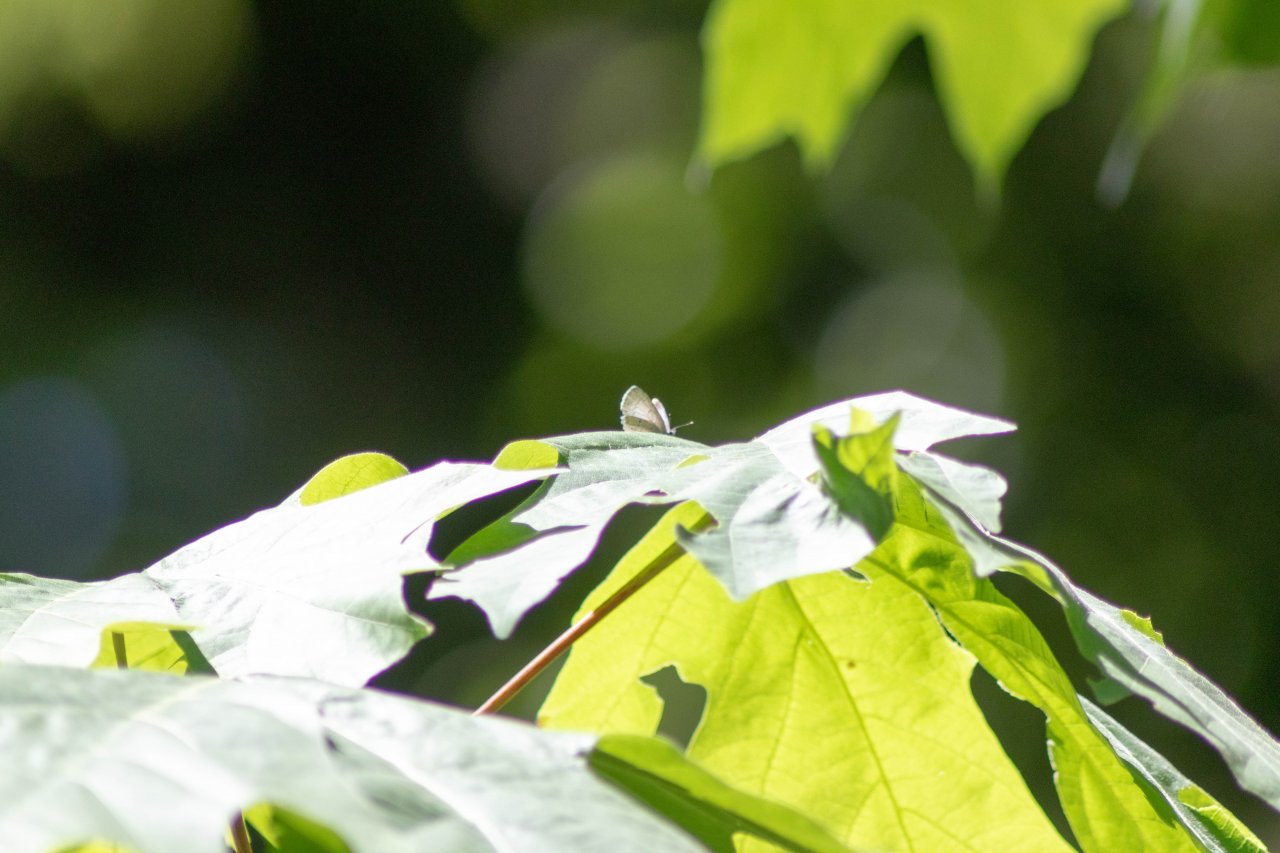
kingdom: Animalia
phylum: Arthropoda
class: Insecta
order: Lepidoptera
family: Lycaenidae
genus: Celastrina
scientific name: Celastrina ladon
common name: Echo Azure
